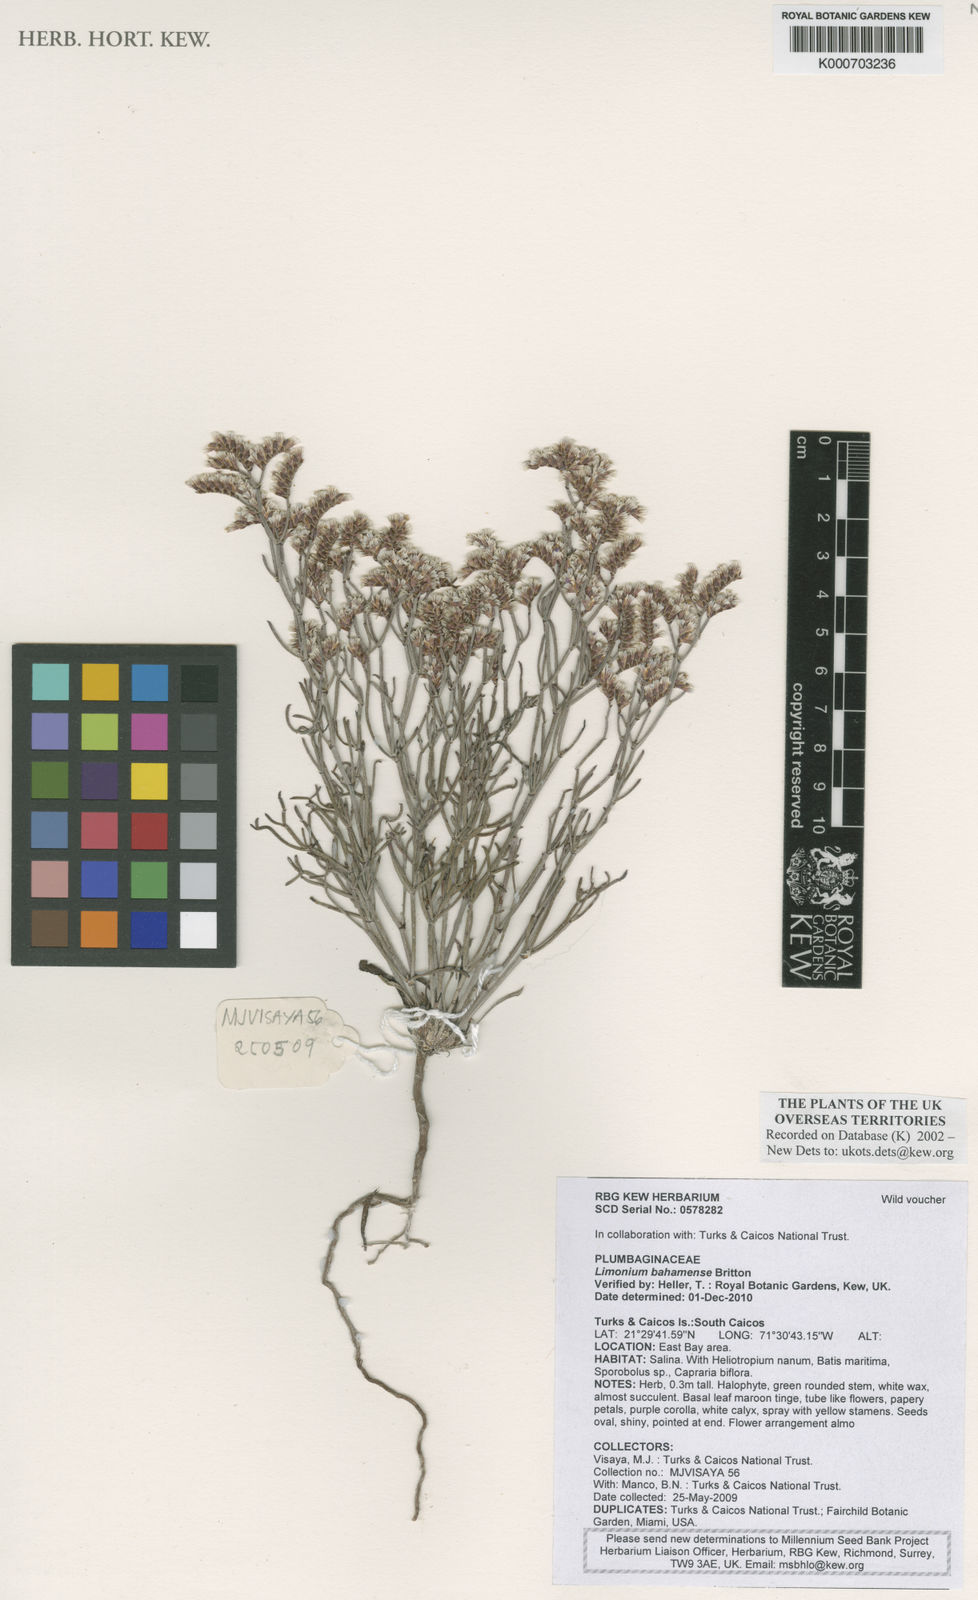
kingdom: Plantae
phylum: Tracheophyta
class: Magnoliopsida
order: Caryophyllales
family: Plumbaginaceae
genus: Limonium
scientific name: Limonium bahamense
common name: Heather
